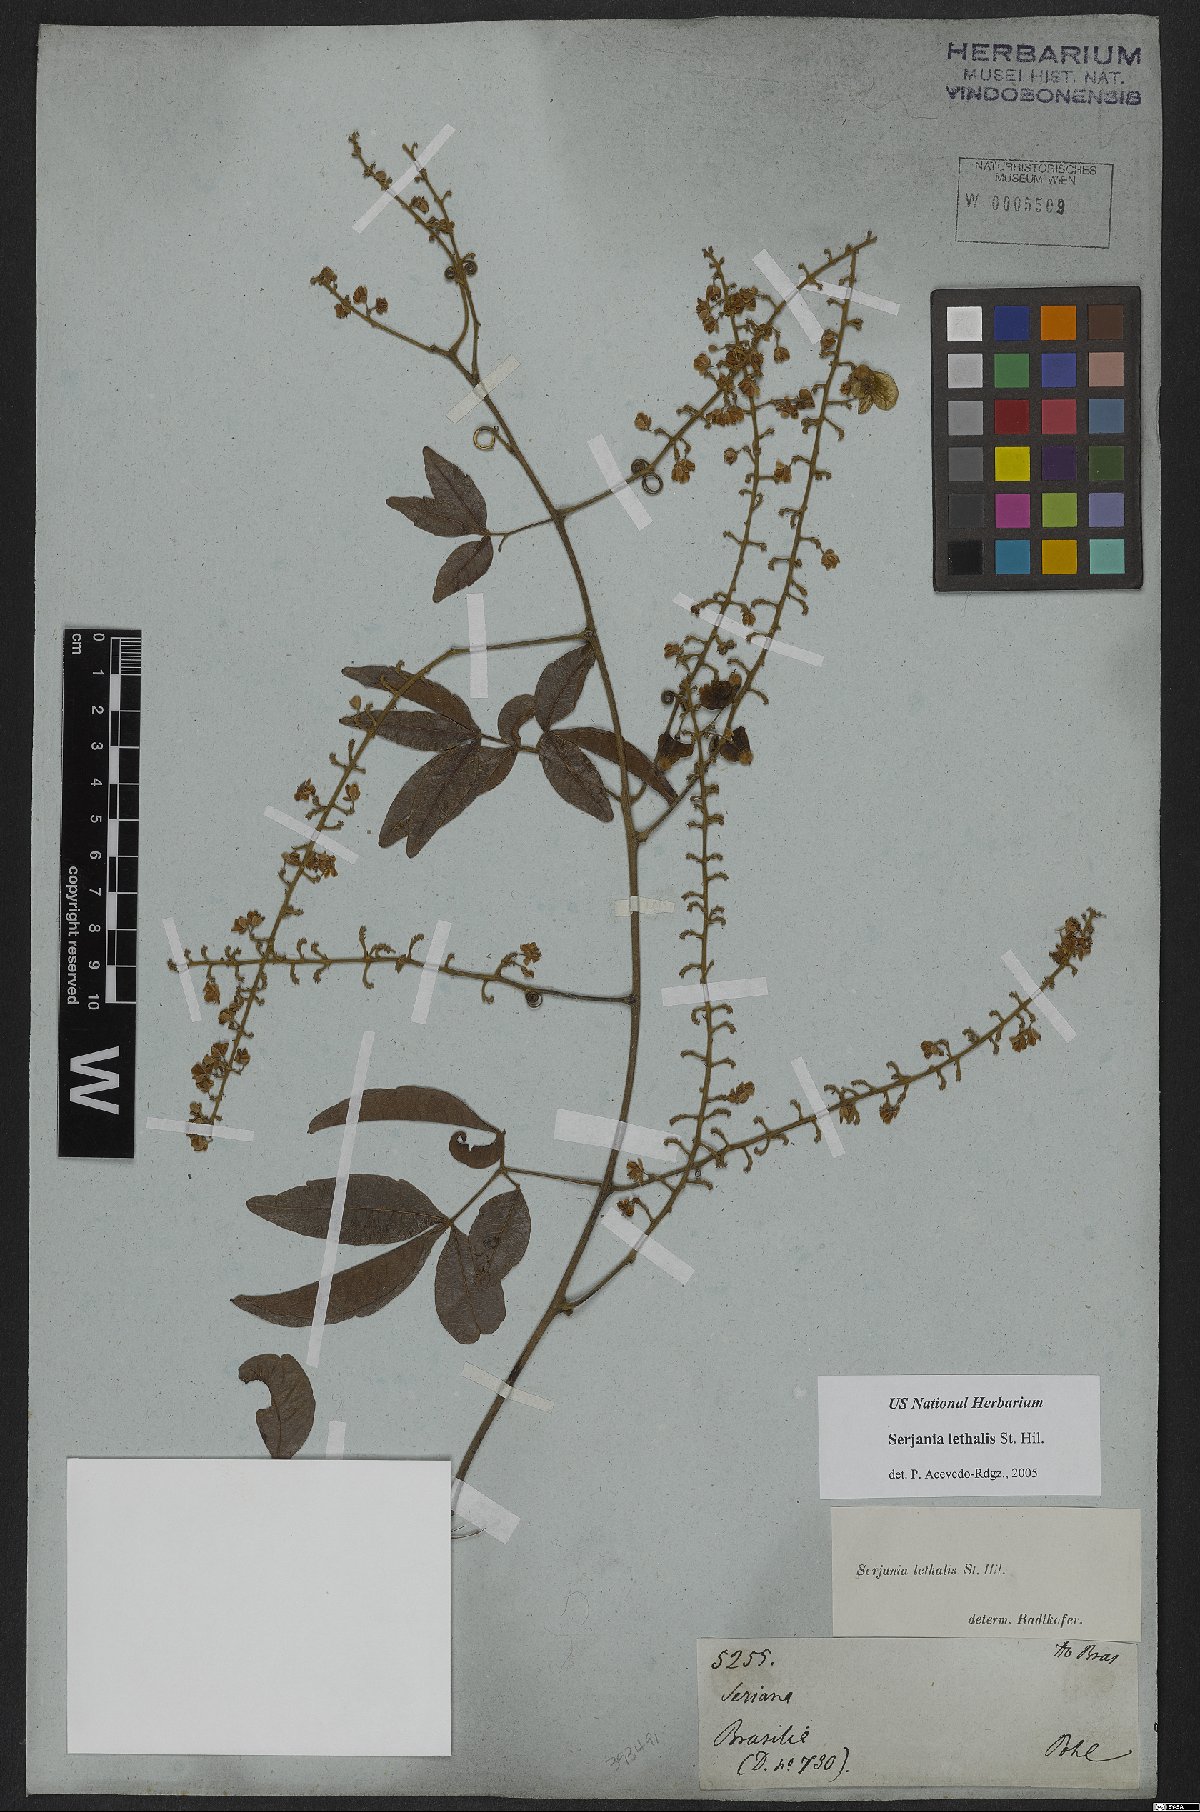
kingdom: Plantae
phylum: Tracheophyta
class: Magnoliopsida
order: Sapindales
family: Sapindaceae
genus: Serjania
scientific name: Serjania lethalis
